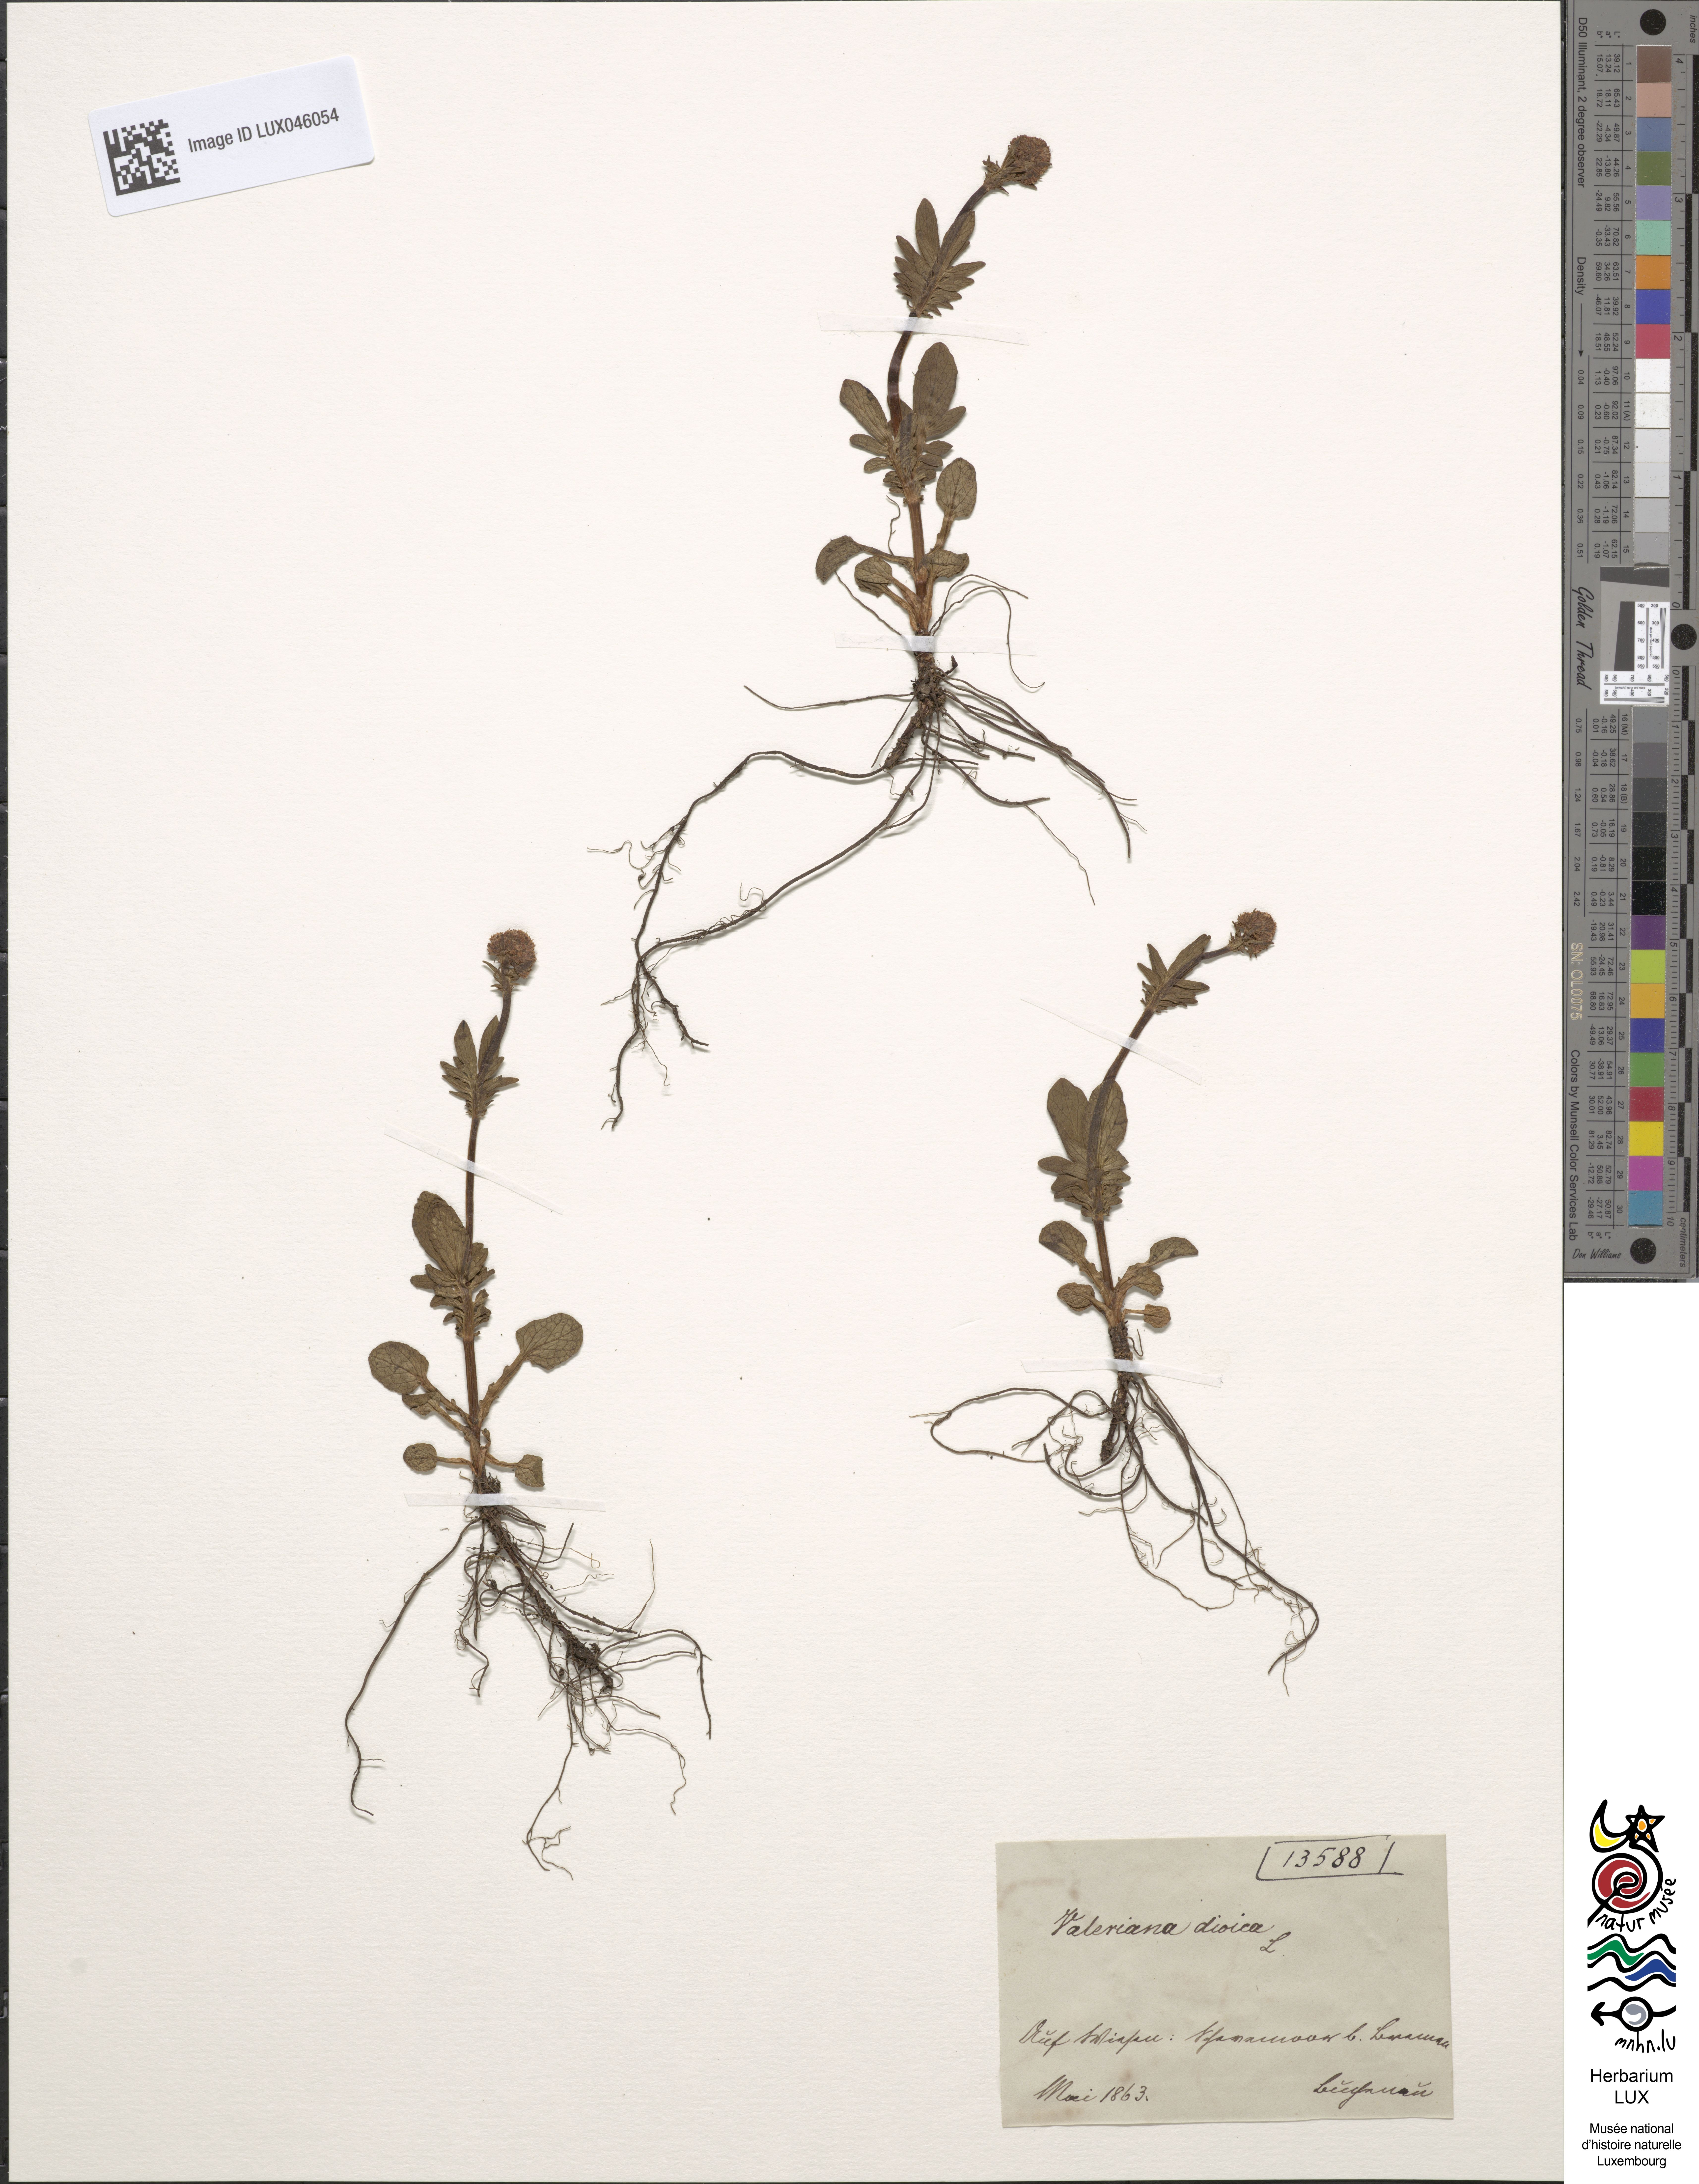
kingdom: Plantae
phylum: Tracheophyta
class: Magnoliopsida
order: Dipsacales
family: Caprifoliaceae
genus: Valeriana
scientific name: Valeriana dioica
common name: Marsh valerian
